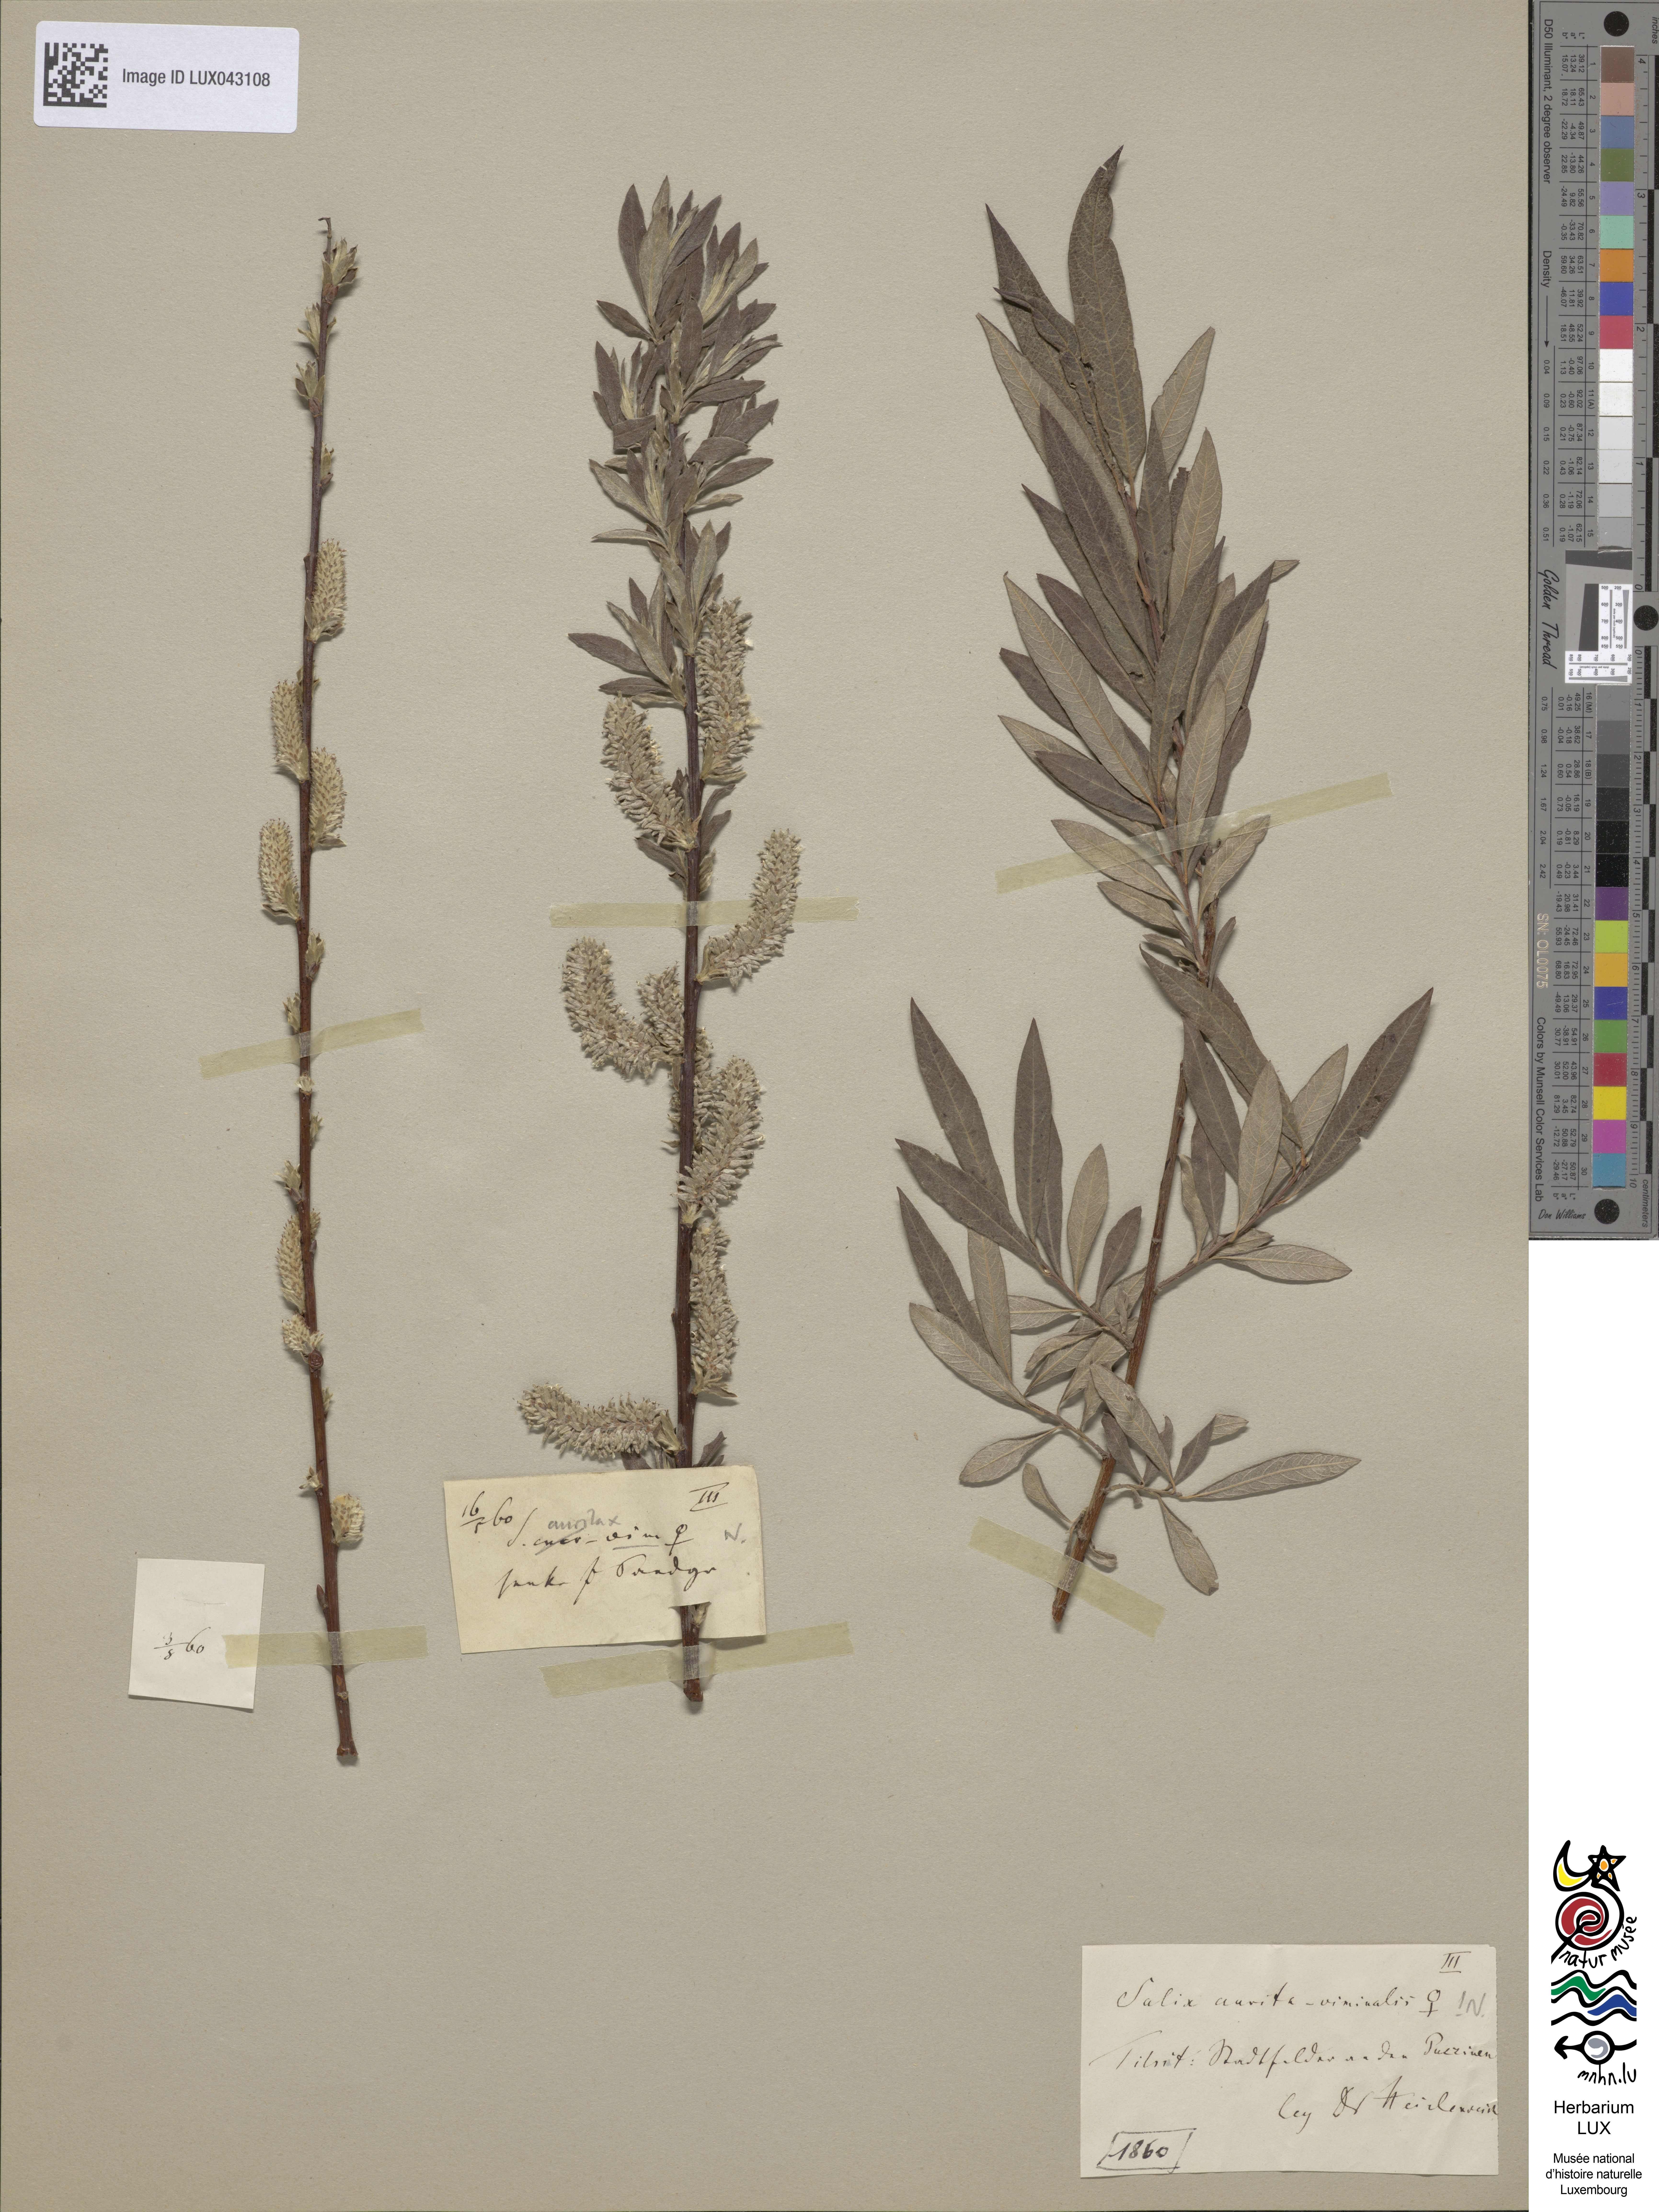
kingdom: Plantae
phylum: Tracheophyta
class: Magnoliopsida
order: Malpighiales
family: Salicaceae
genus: Salix
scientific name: Salix
